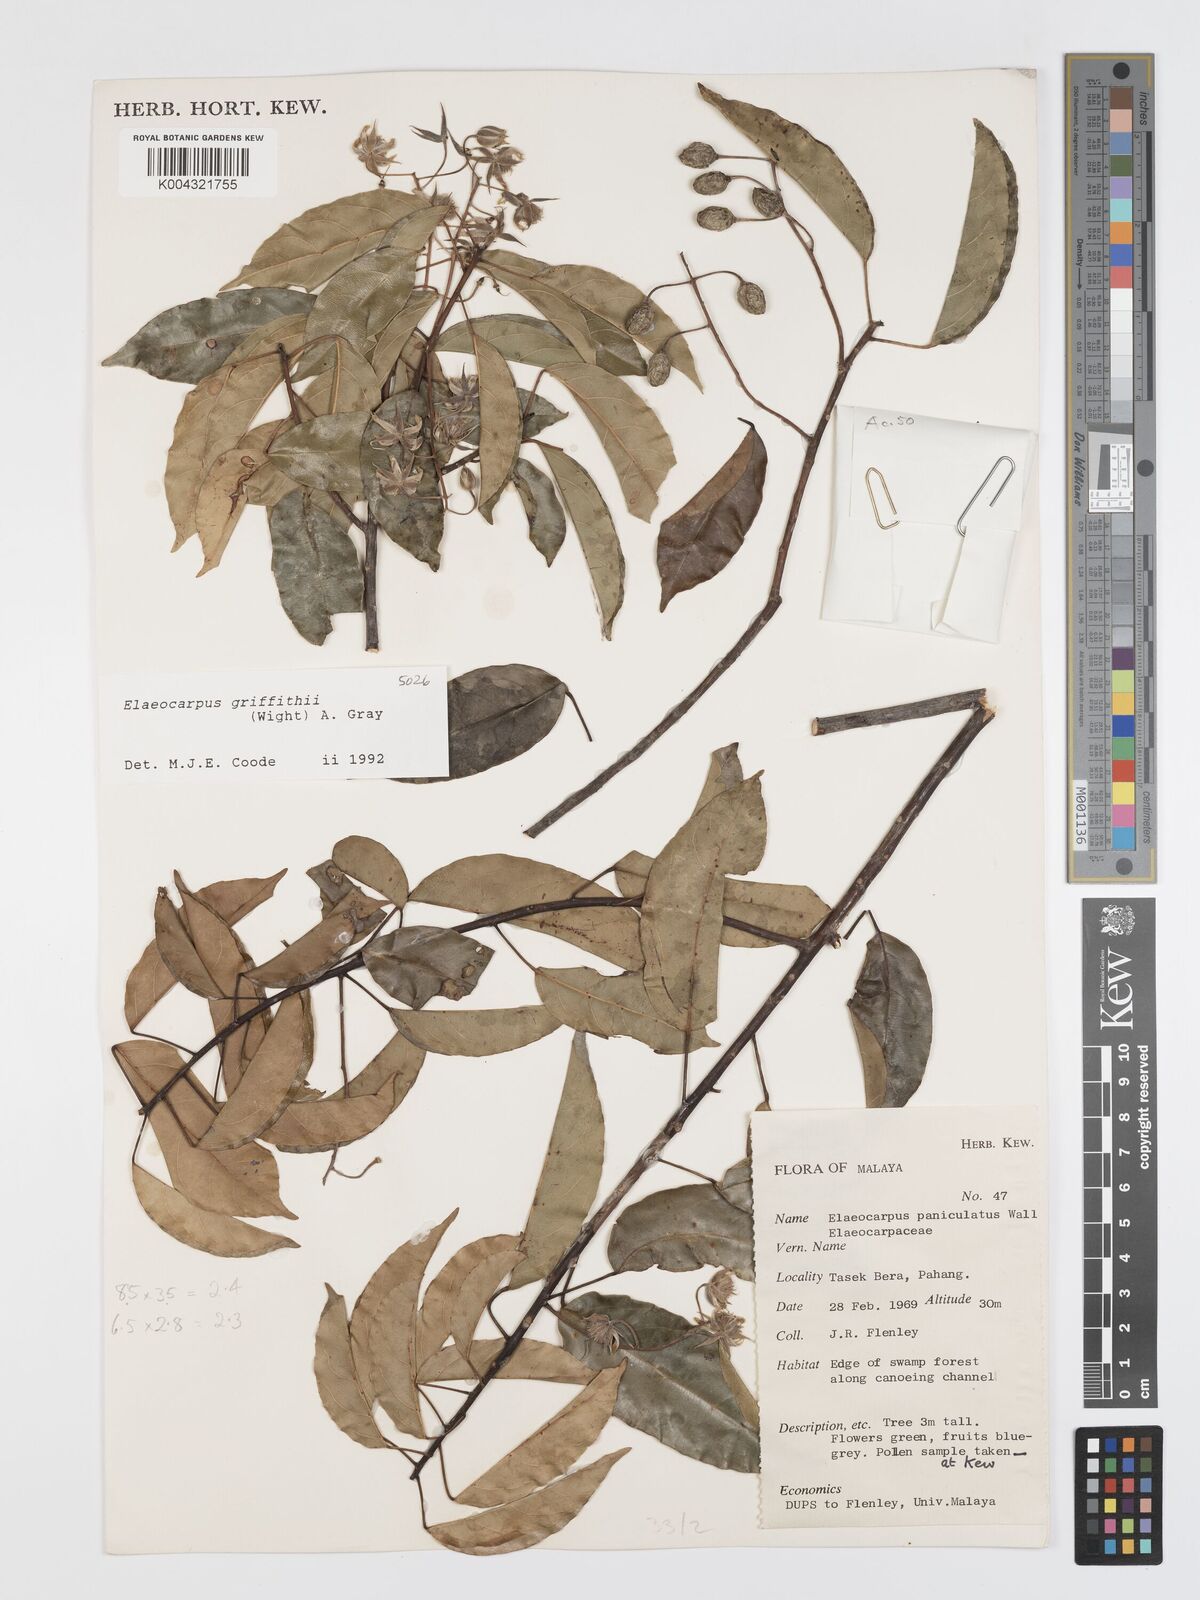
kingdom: Plantae
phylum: Tracheophyta
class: Magnoliopsida
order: Oxalidales
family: Elaeocarpaceae
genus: Elaeocarpus
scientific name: Elaeocarpus griffithii
